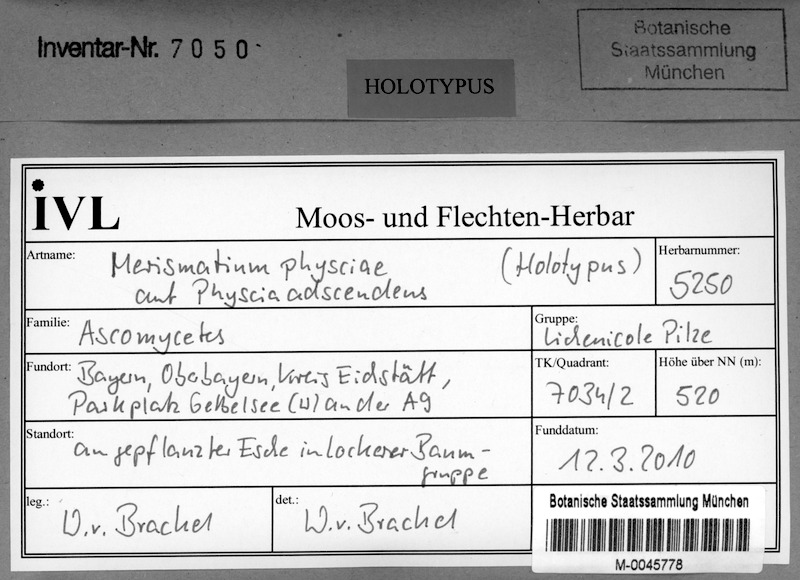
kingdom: Fungi
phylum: Ascomycota
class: Dothideomycetes
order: Pleosporales
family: Phaeosphaeriaceae
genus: Didymocyrtis
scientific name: Didymocyrtis physciae
